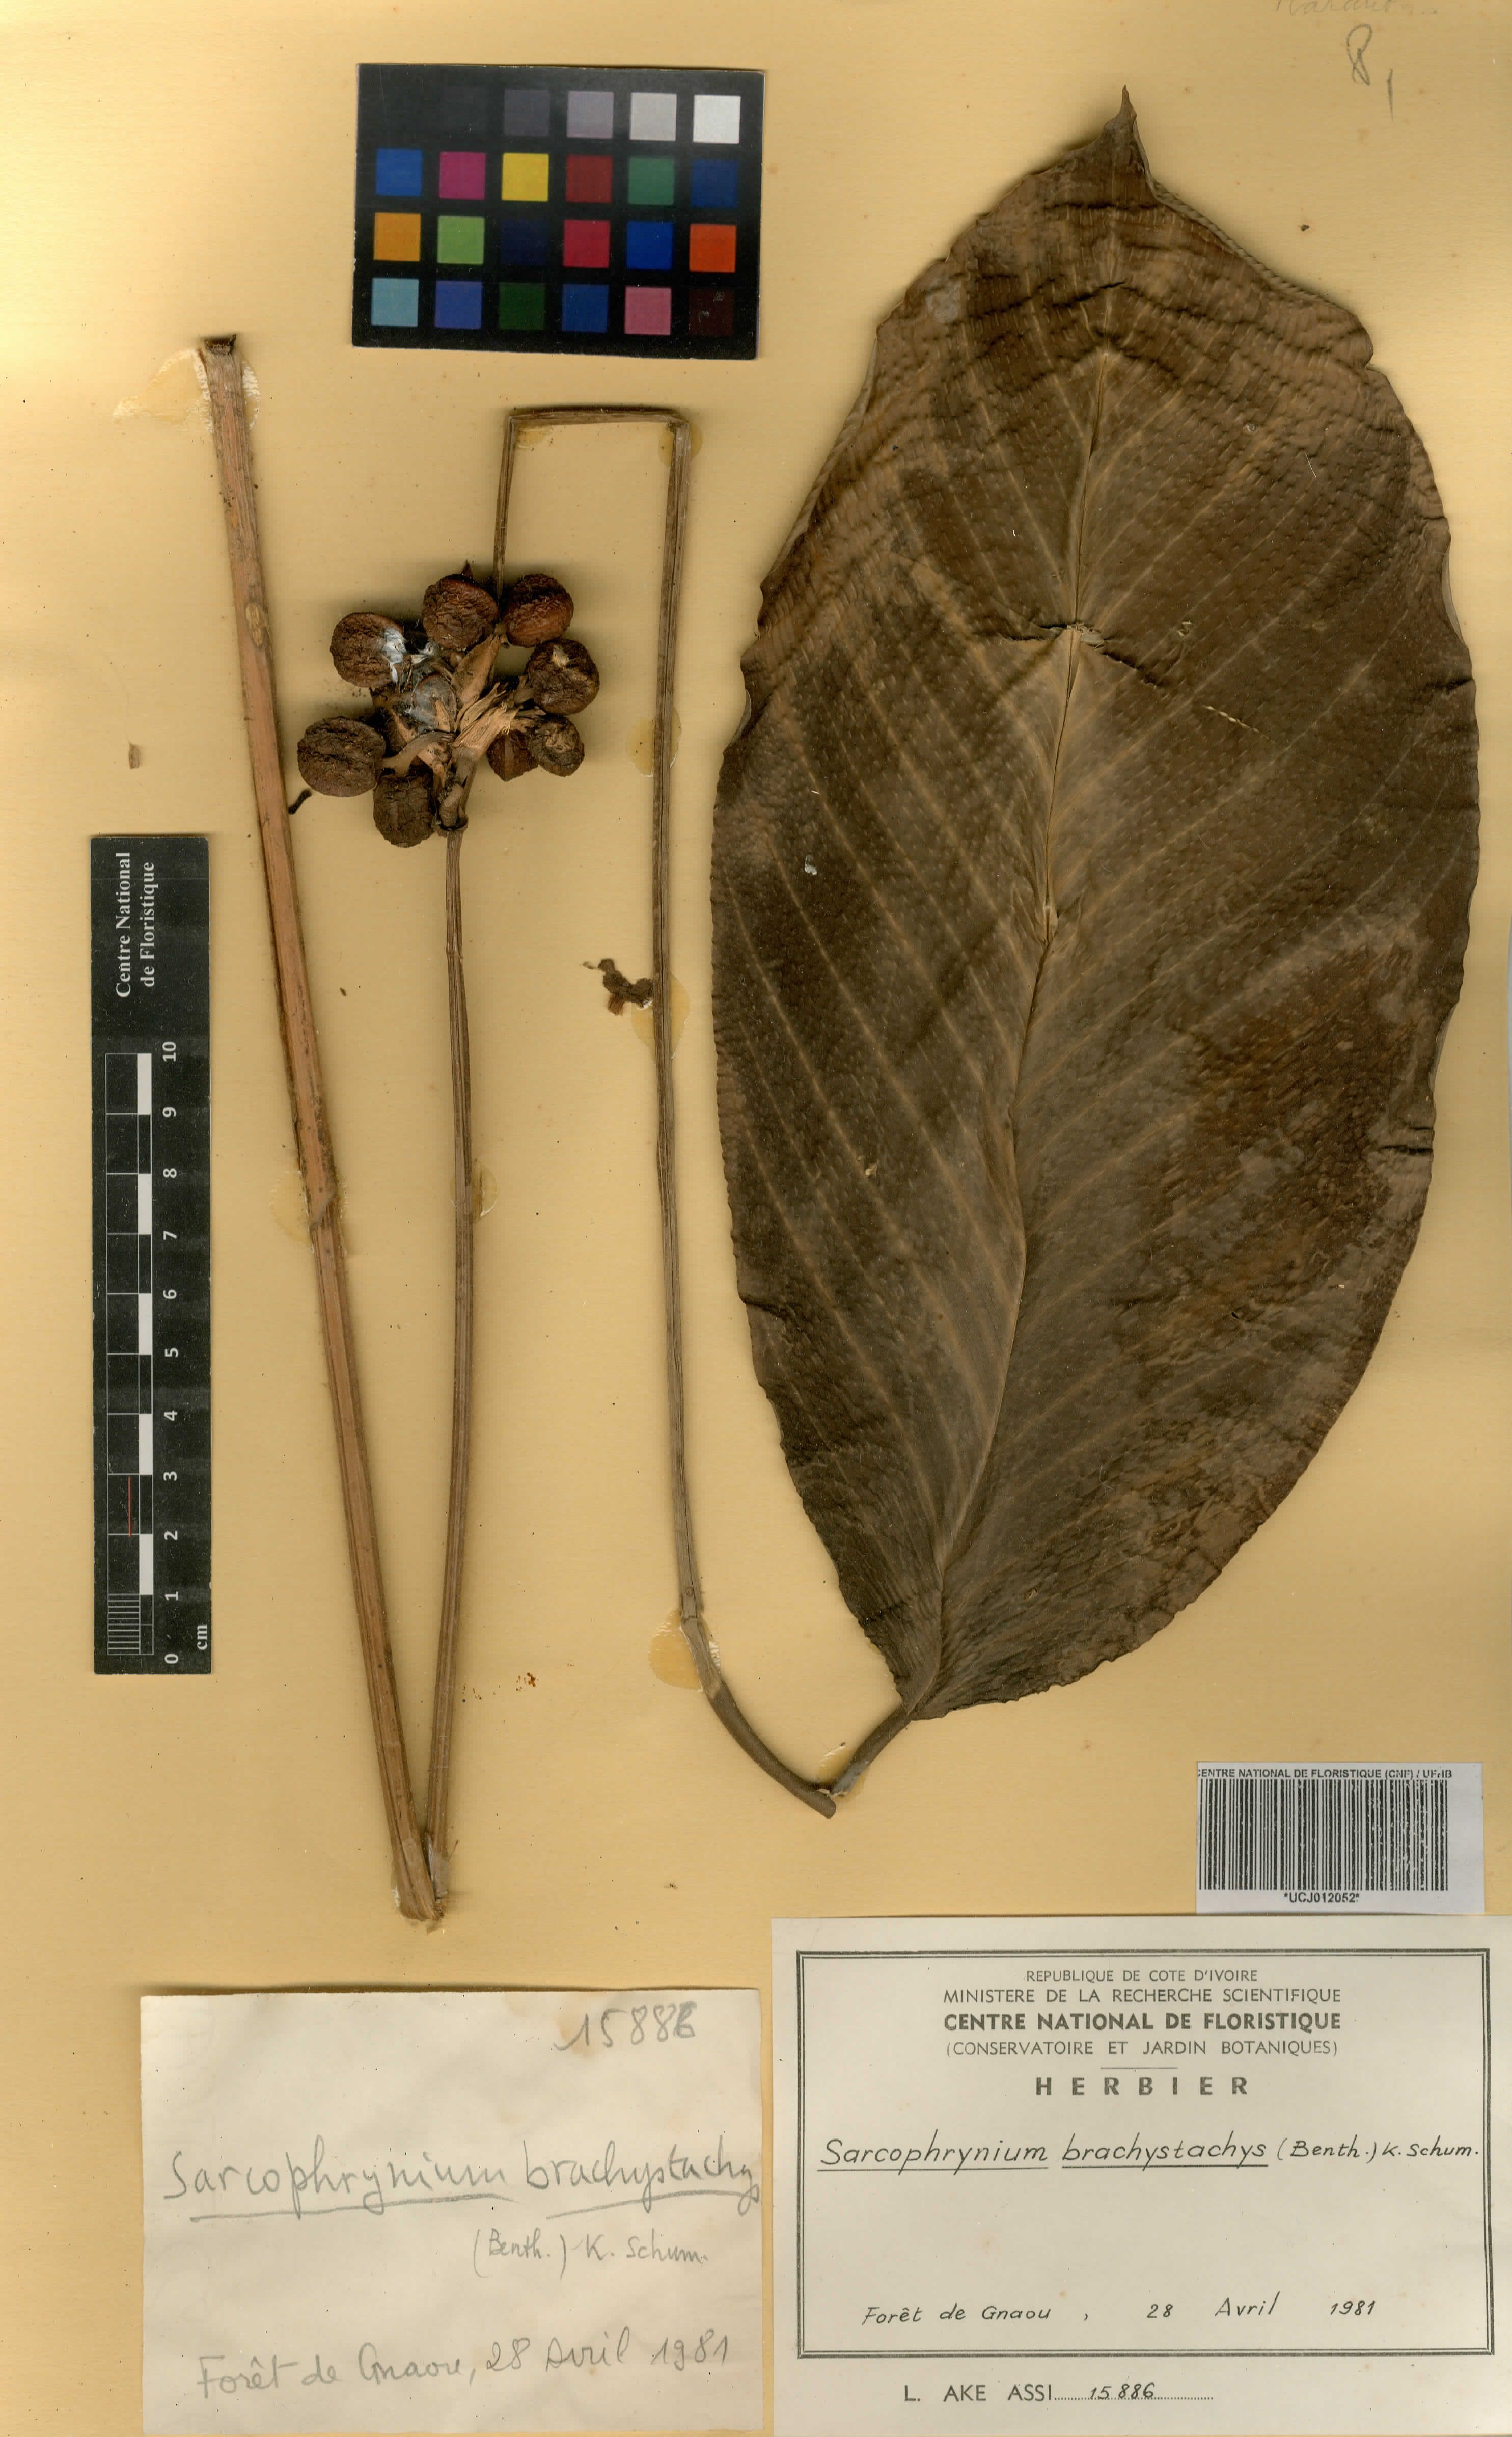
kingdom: Plantae
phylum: Tracheophyta
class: Liliopsida
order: Zingiberales
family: Marantaceae
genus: Sarcophrynium
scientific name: Sarcophrynium brachystachyum
